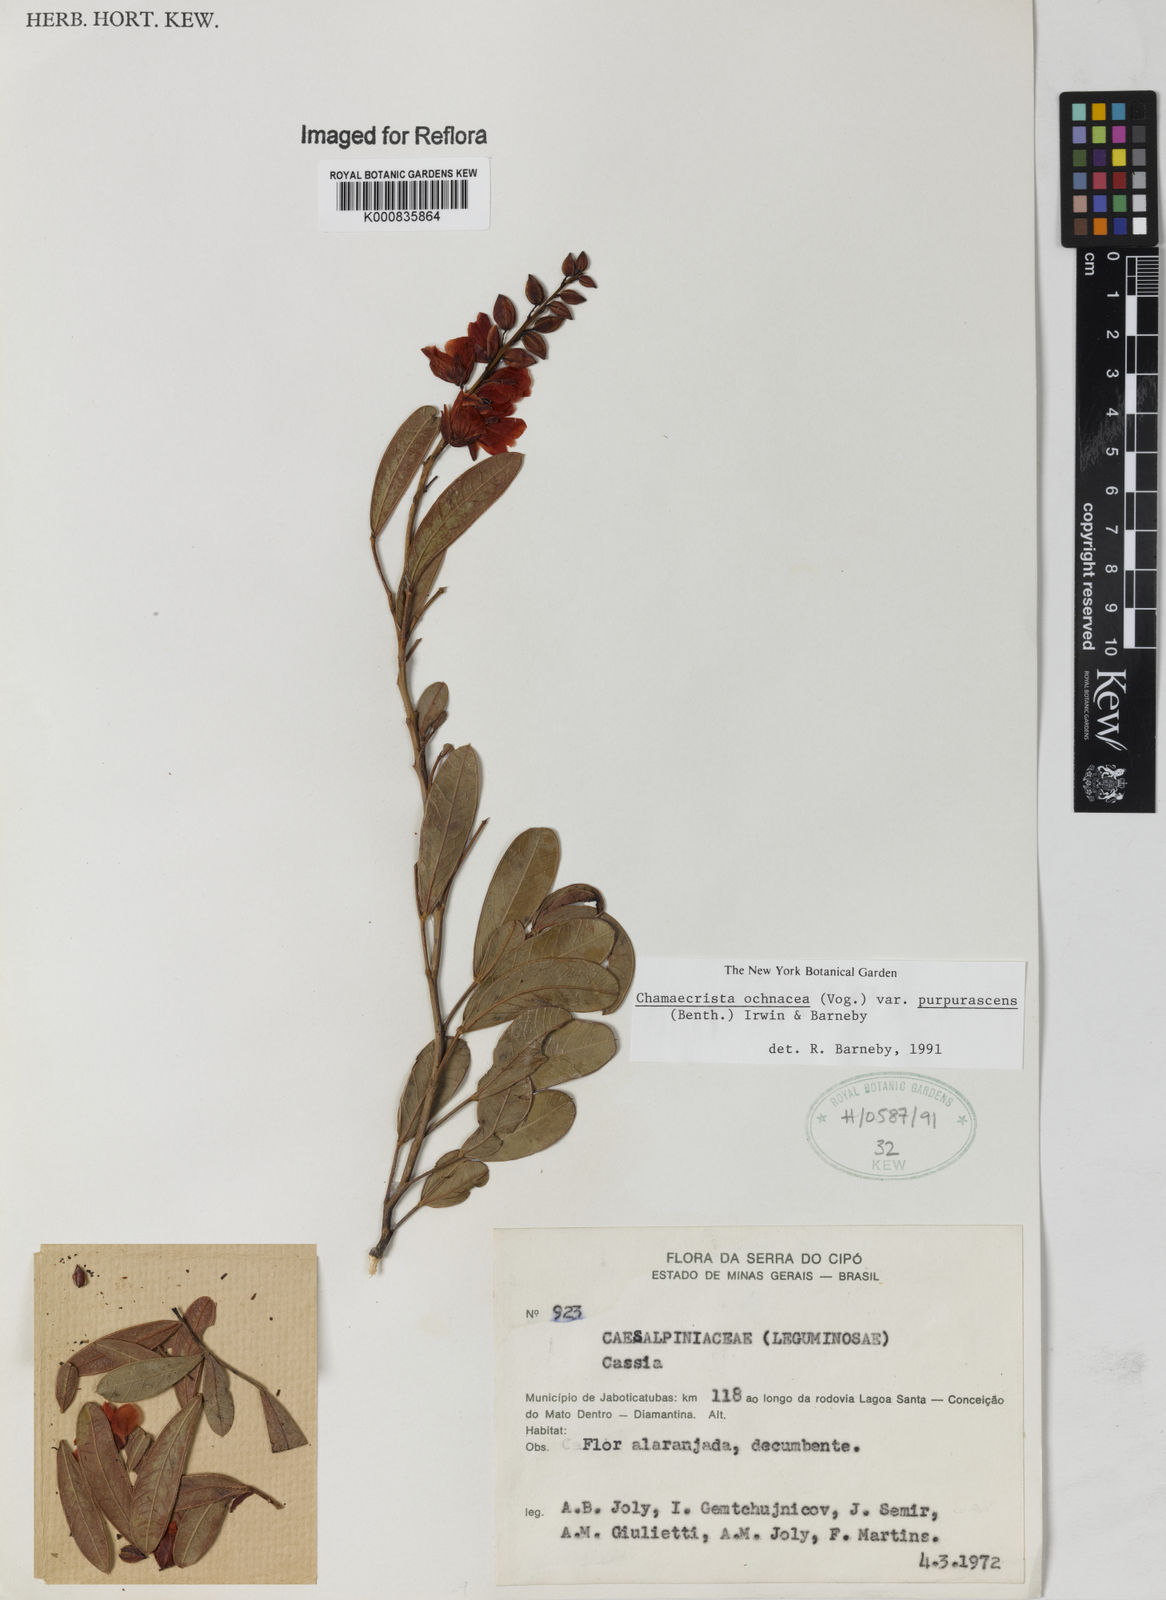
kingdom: Plantae
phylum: Tracheophyta
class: Magnoliopsida
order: Fabales
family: Fabaceae
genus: Chamaecrista
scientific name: Chamaecrista ochnacea
